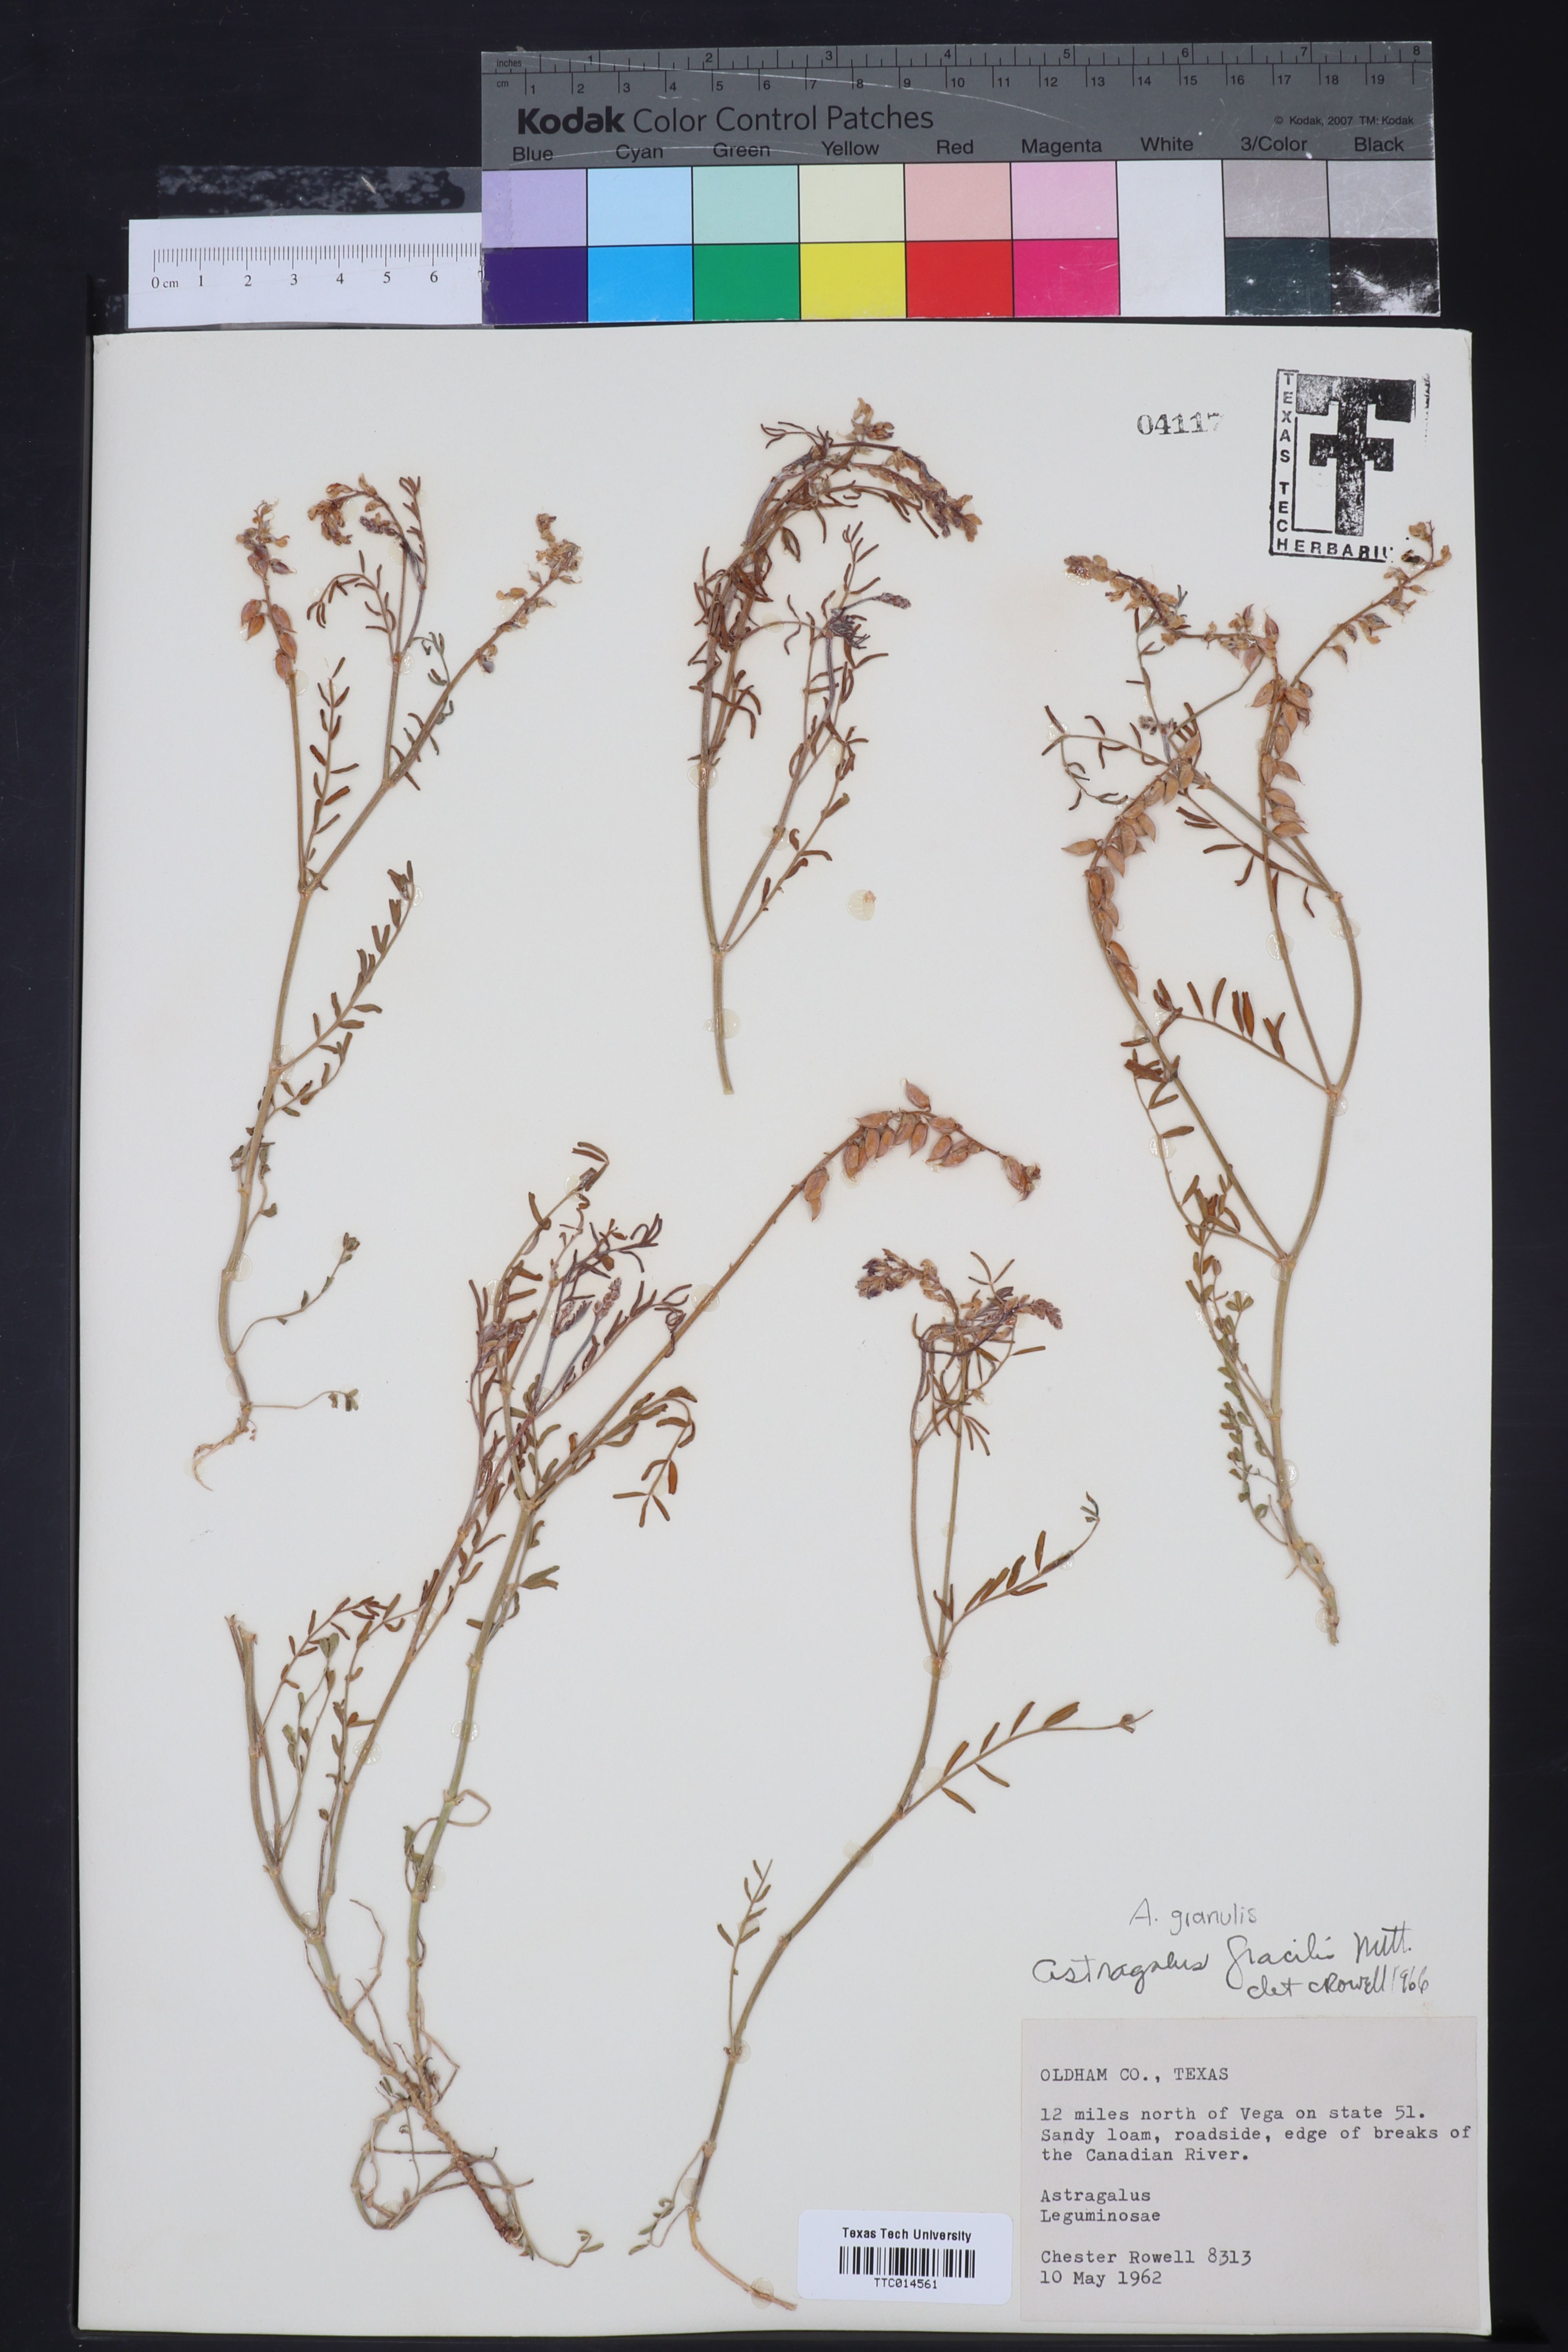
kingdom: Plantae
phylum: Tracheophyta
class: Magnoliopsida
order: Fabales
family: Fabaceae
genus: Astragalus
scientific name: Astragalus gracilis
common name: Slender milk-vetch
